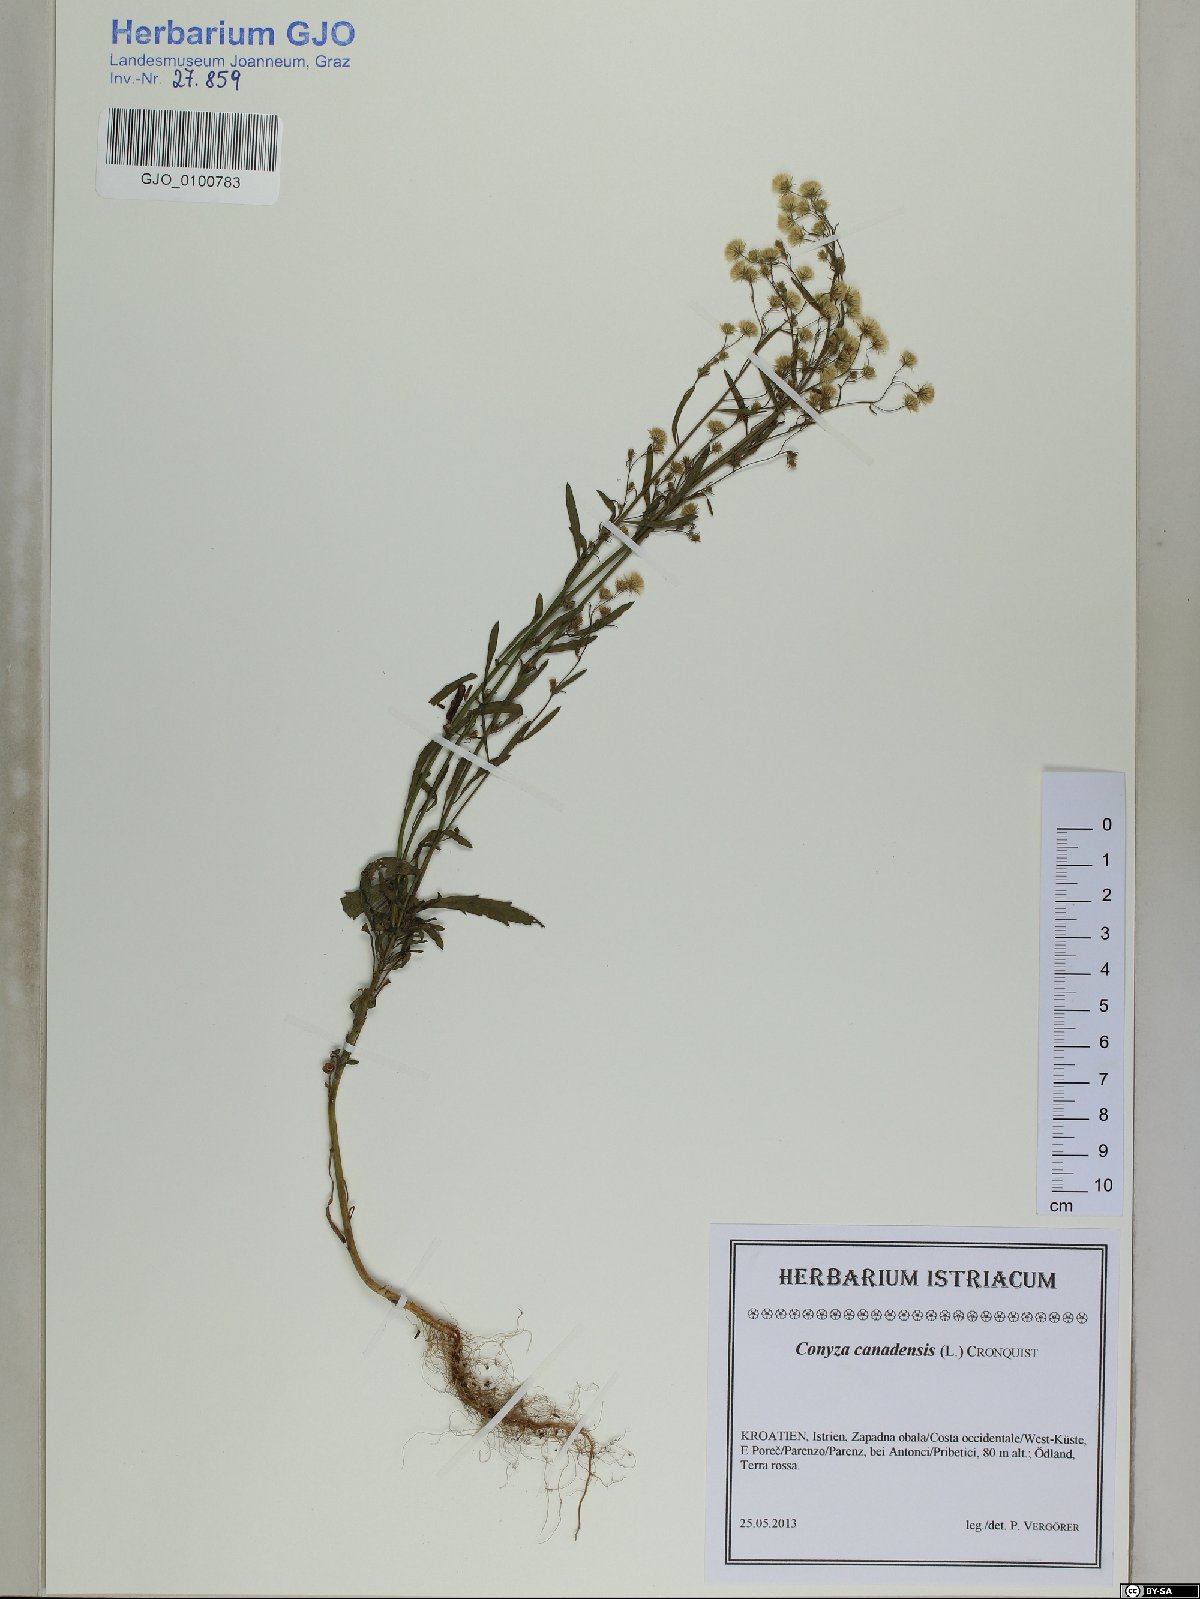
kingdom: Plantae
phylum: Tracheophyta
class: Magnoliopsida
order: Asterales
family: Asteraceae
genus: Erigeron
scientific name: Erigeron canadensis
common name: Canadian fleabane
